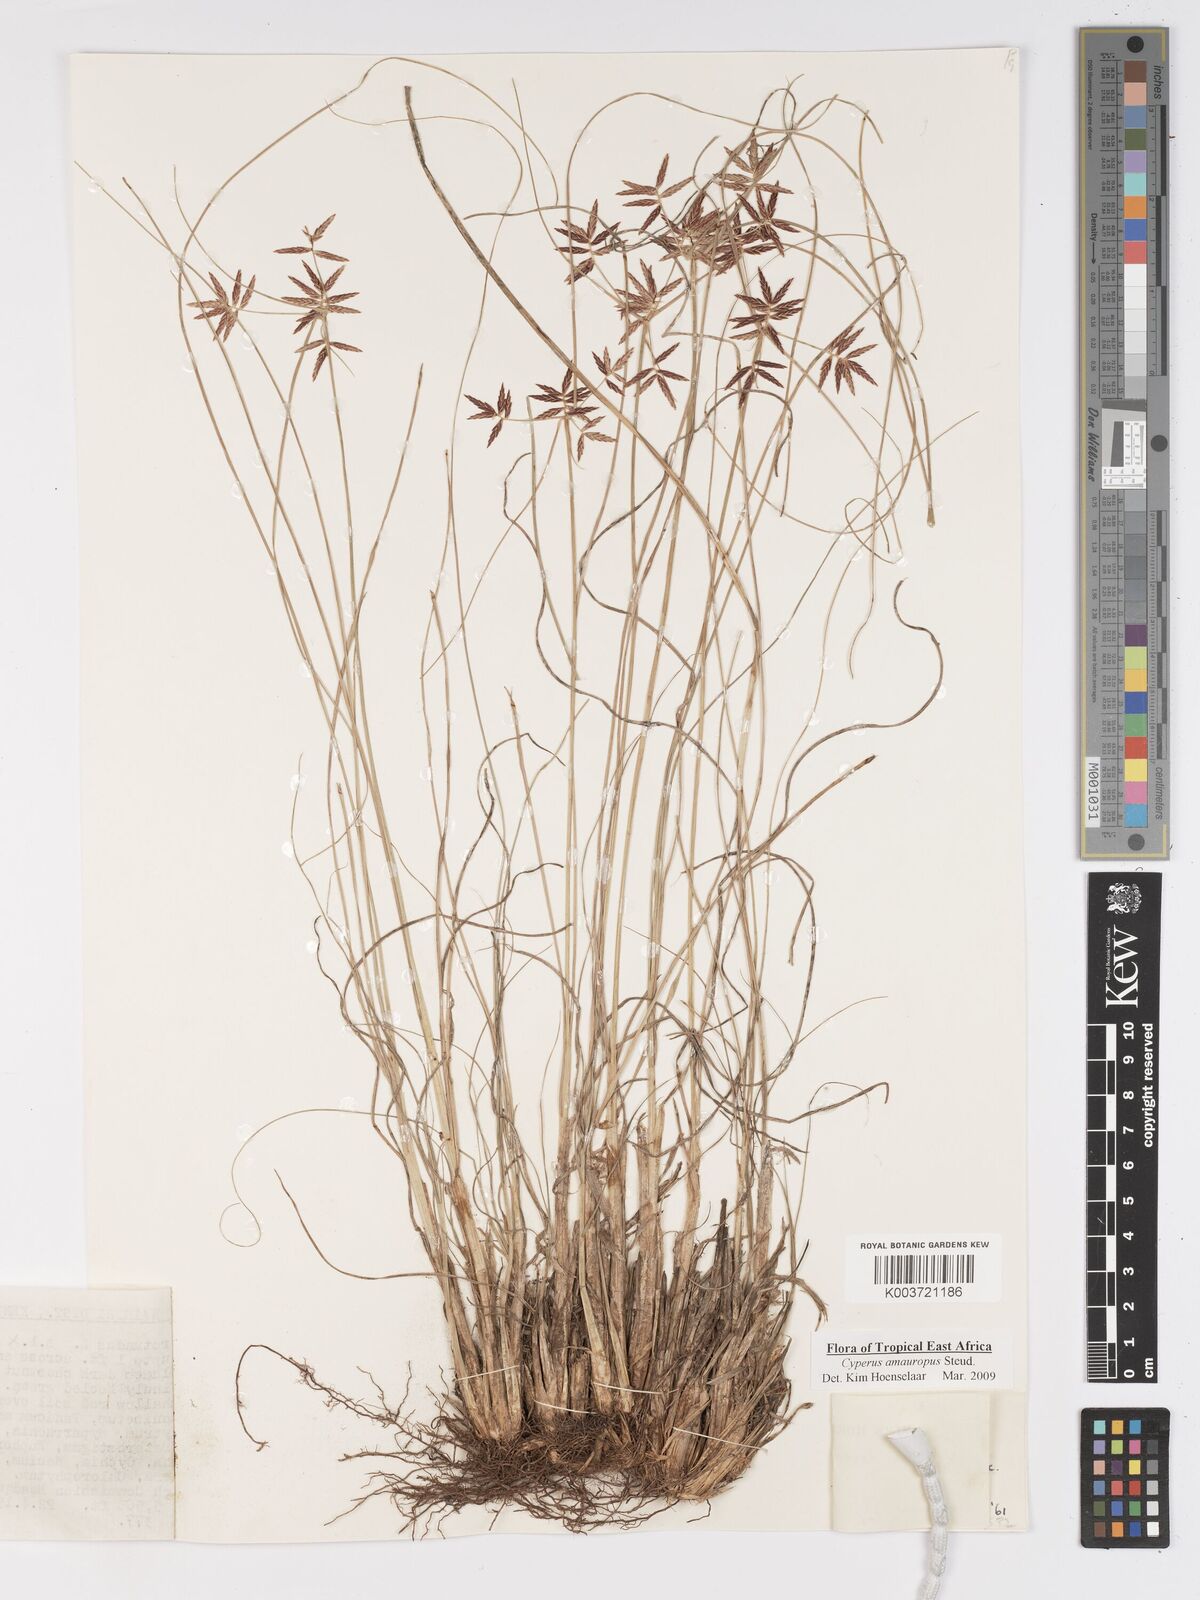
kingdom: Plantae
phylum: Tracheophyta
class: Liliopsida
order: Poales
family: Cyperaceae
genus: Cyperus
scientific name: Cyperus amauropus
